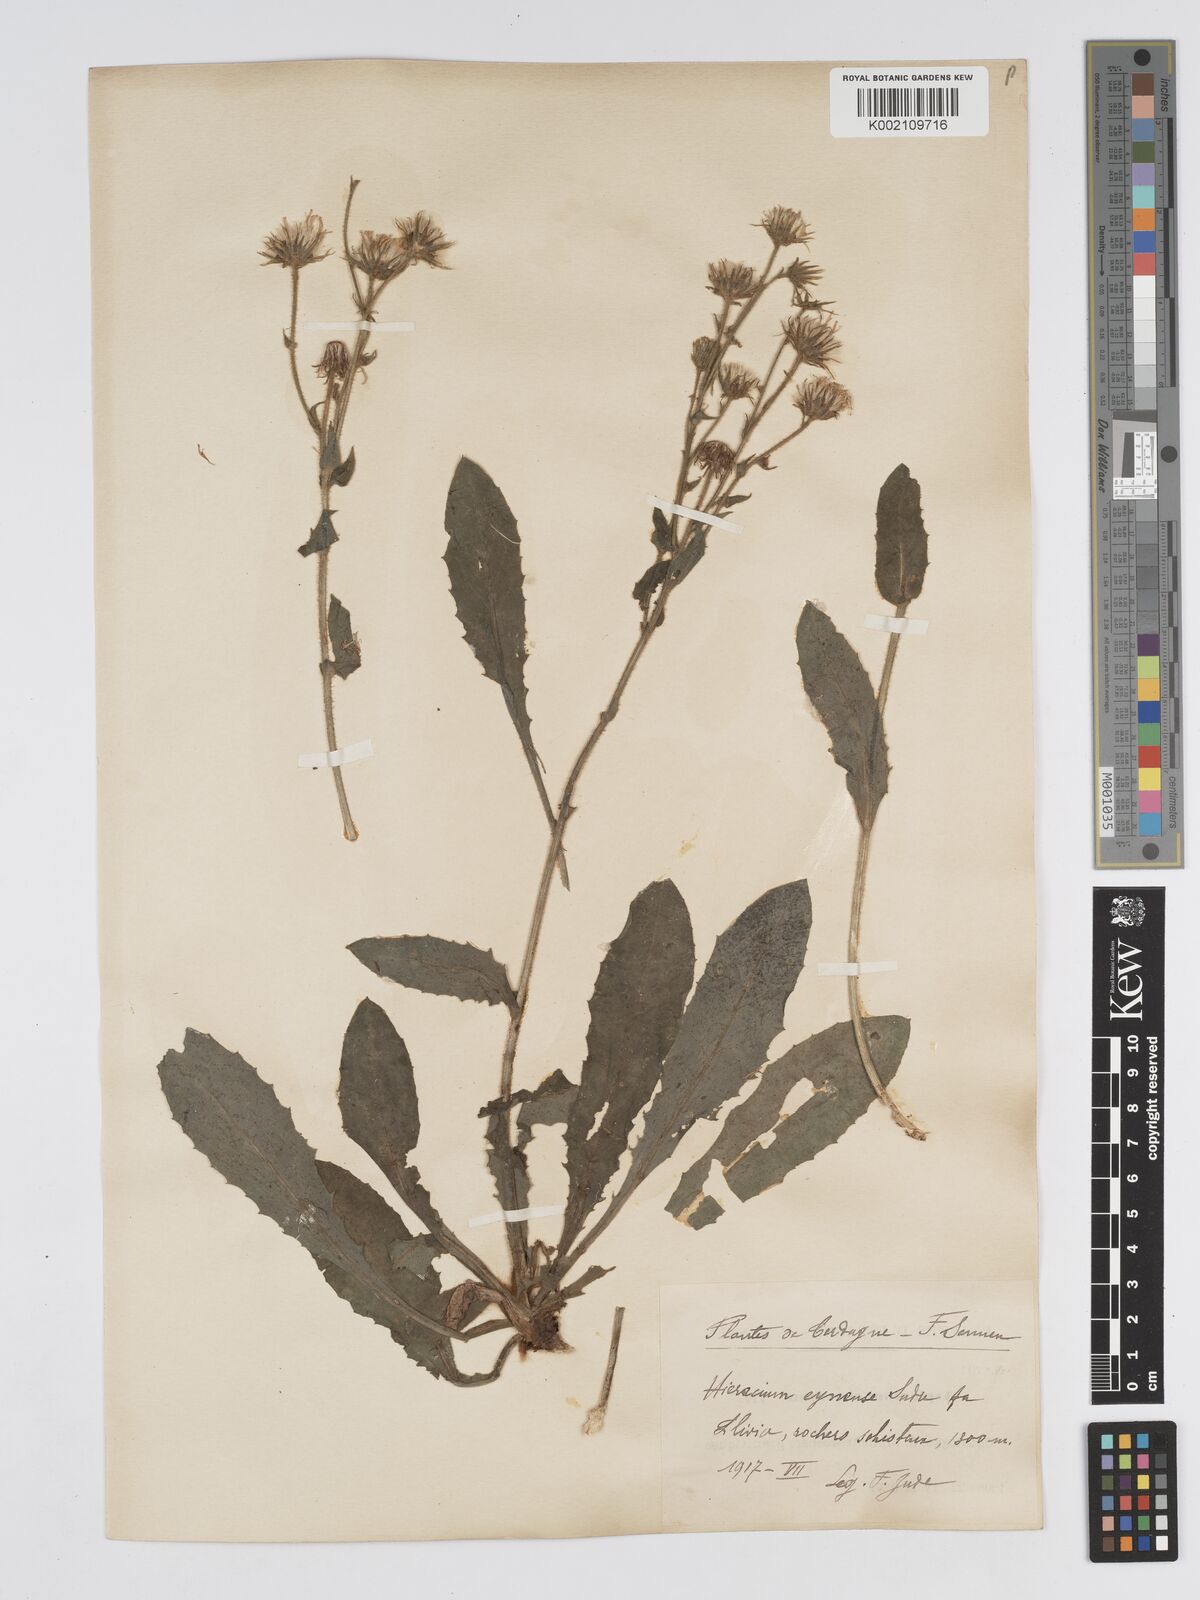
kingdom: Plantae
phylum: Tracheophyta
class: Magnoliopsida
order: Asterales
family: Asteraceae
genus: Hieracium
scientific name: Hieracium
